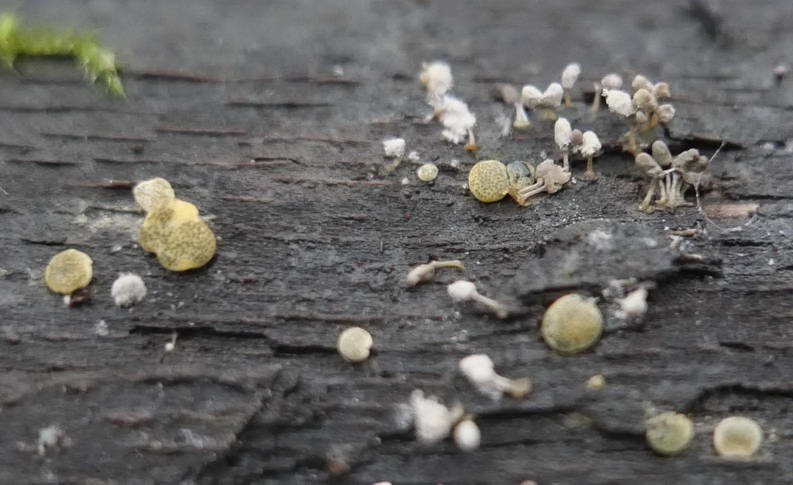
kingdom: Fungi
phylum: Ascomycota
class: Sordariomycetes
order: Hypocreales
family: Hypocreaceae
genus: Trichoderma
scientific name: Trichoderma aureoviride
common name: æggegul kødkerne
